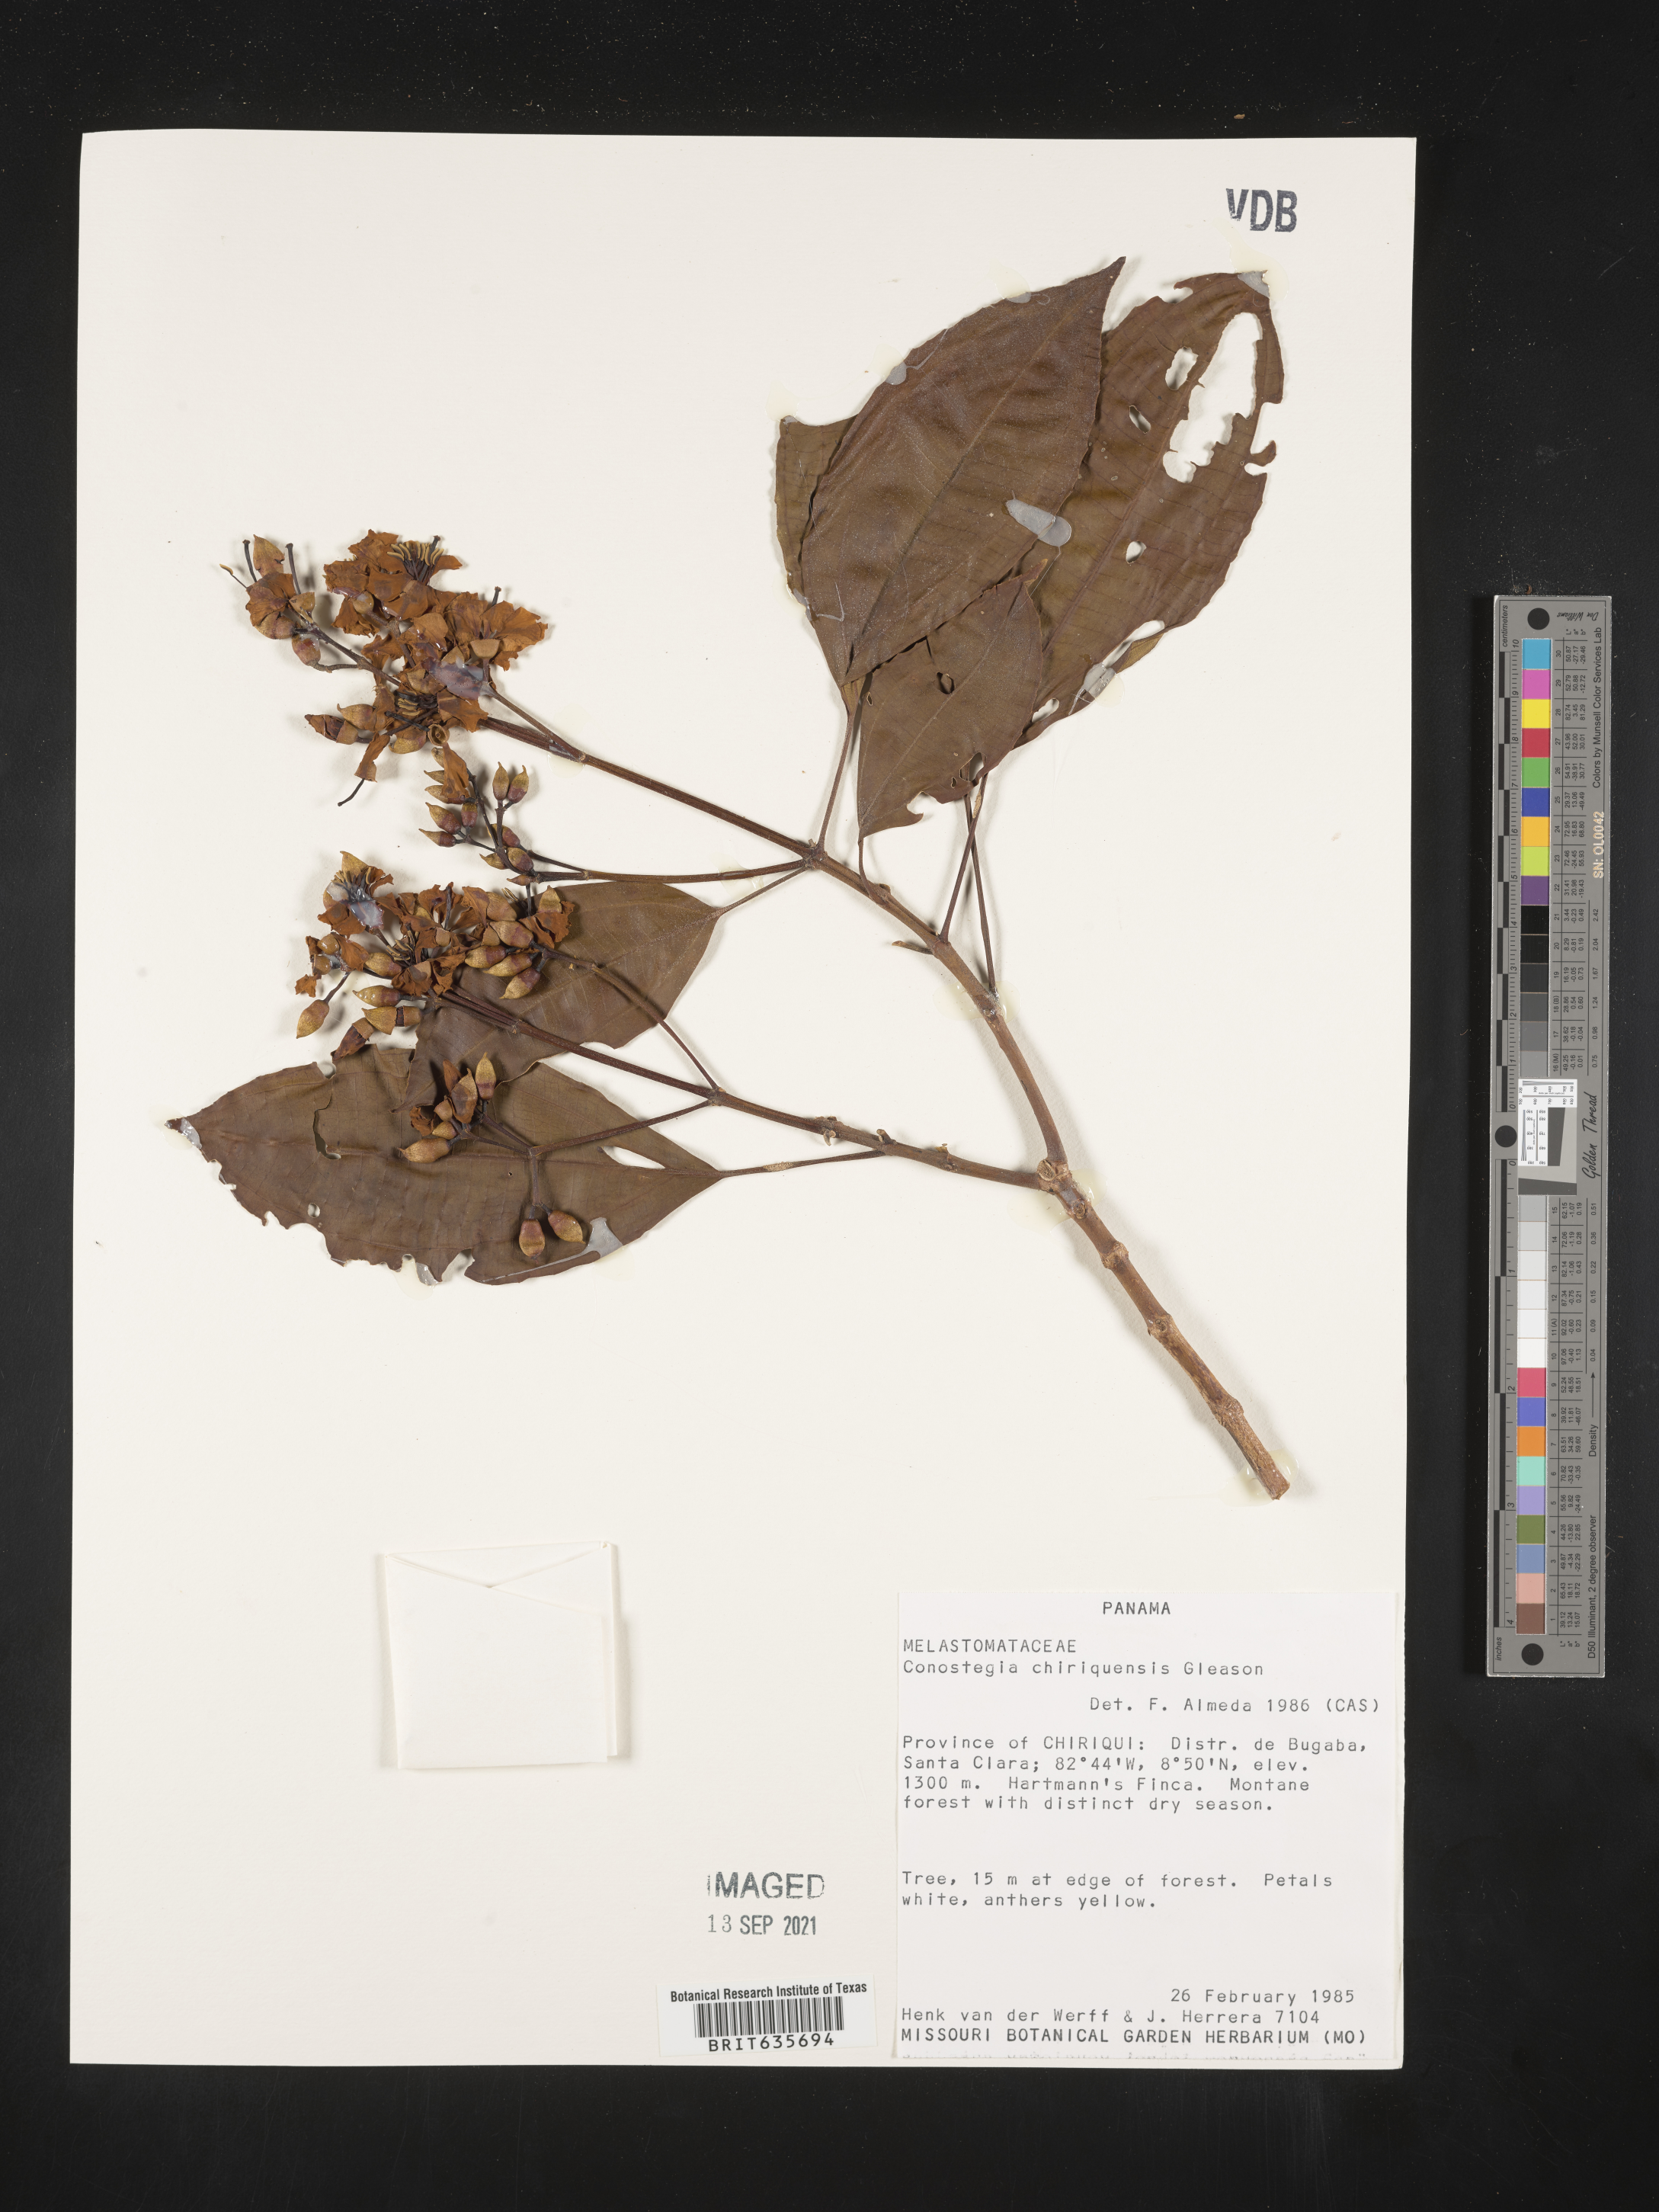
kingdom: Plantae
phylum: Tracheophyta
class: Magnoliopsida
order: Myrtales
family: Melastomataceae
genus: Miconia
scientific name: Miconia
